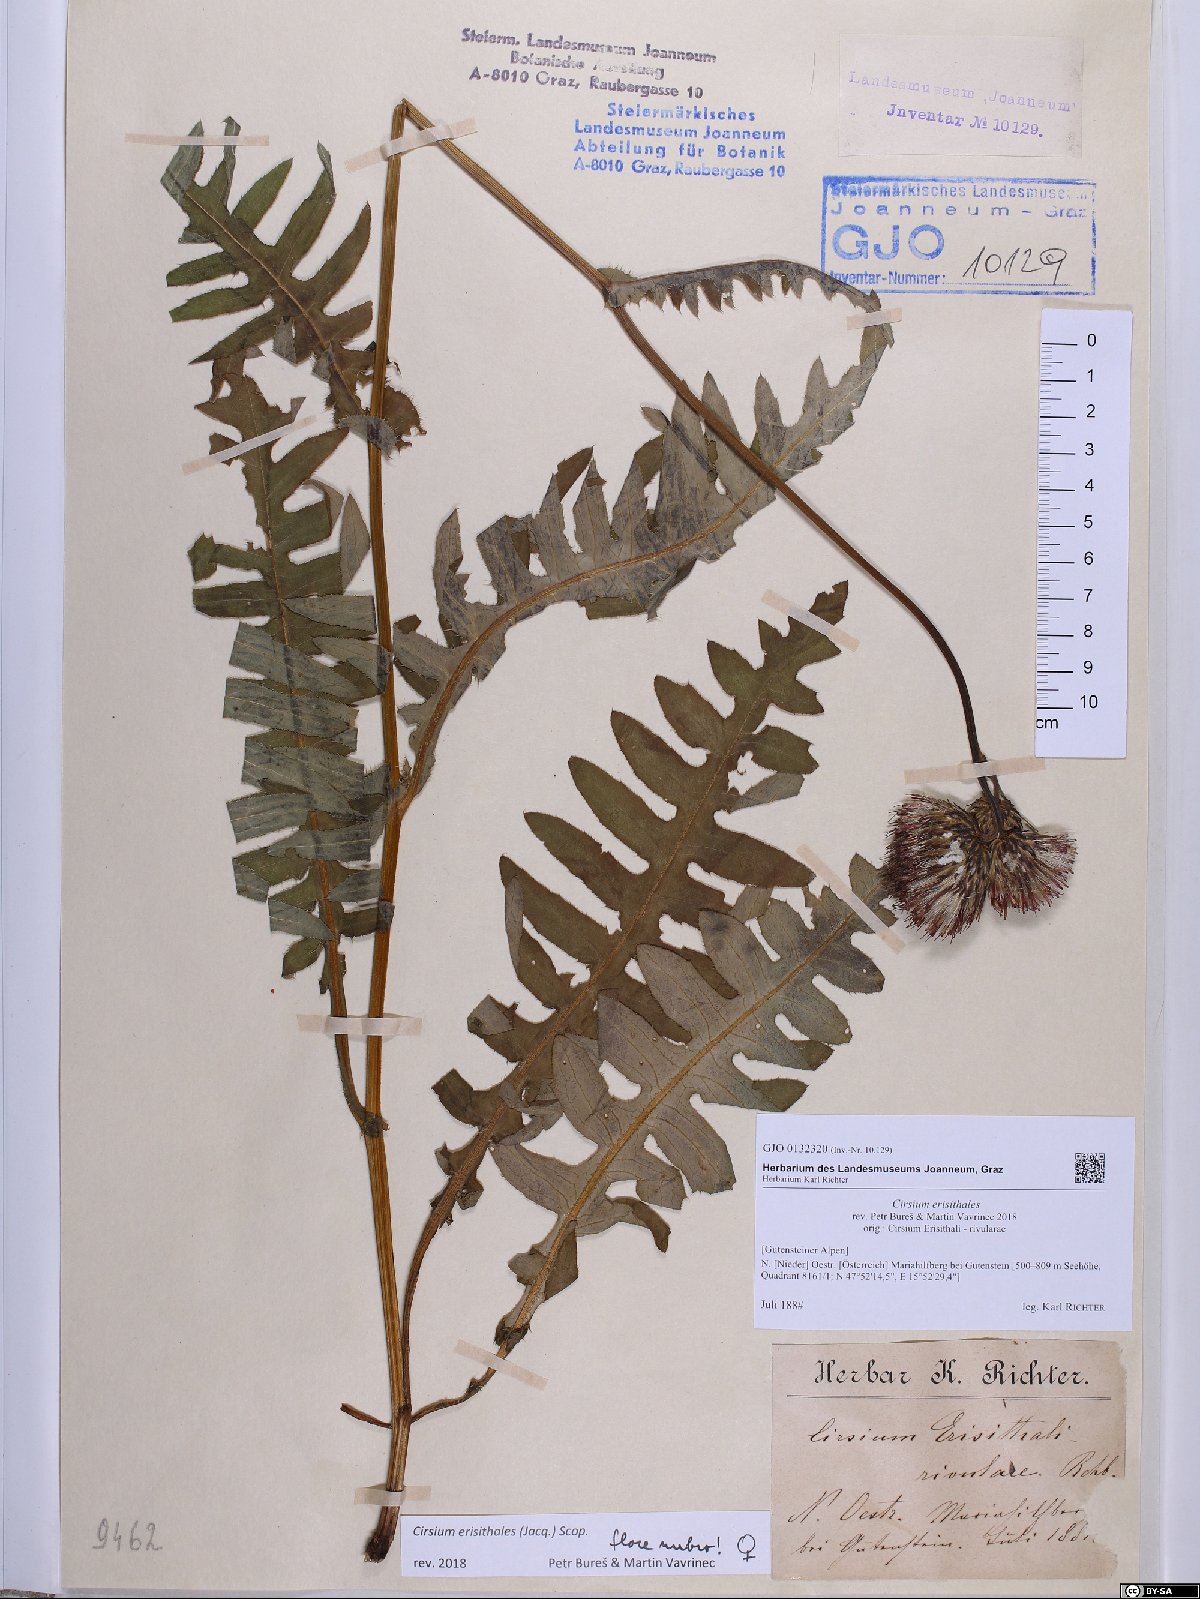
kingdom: Plantae
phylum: Tracheophyta
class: Magnoliopsida
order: Asterales
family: Asteraceae
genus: Cirsium
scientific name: Cirsium erisithales
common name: Yellow thistle
